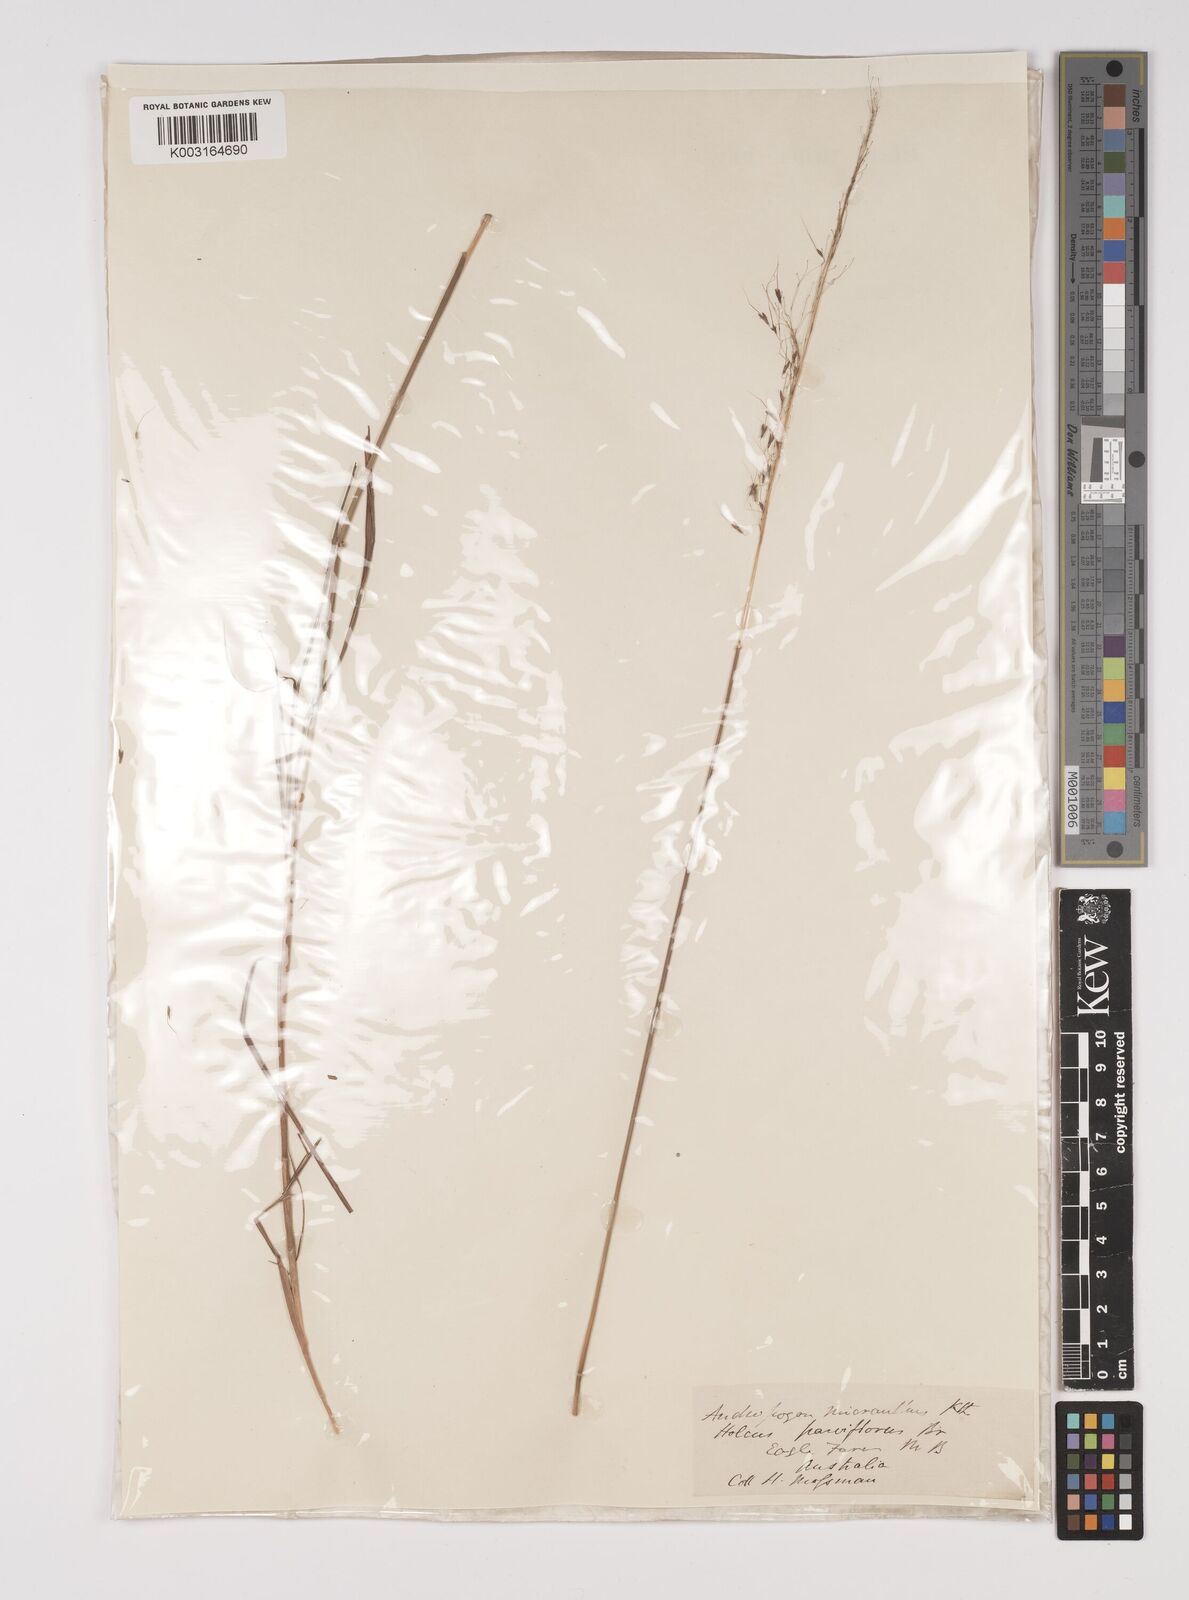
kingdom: Plantae
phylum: Tracheophyta
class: Liliopsida
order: Poales
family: Poaceae
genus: Capillipedium
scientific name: Capillipedium parviflorum
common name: Golden-beard
